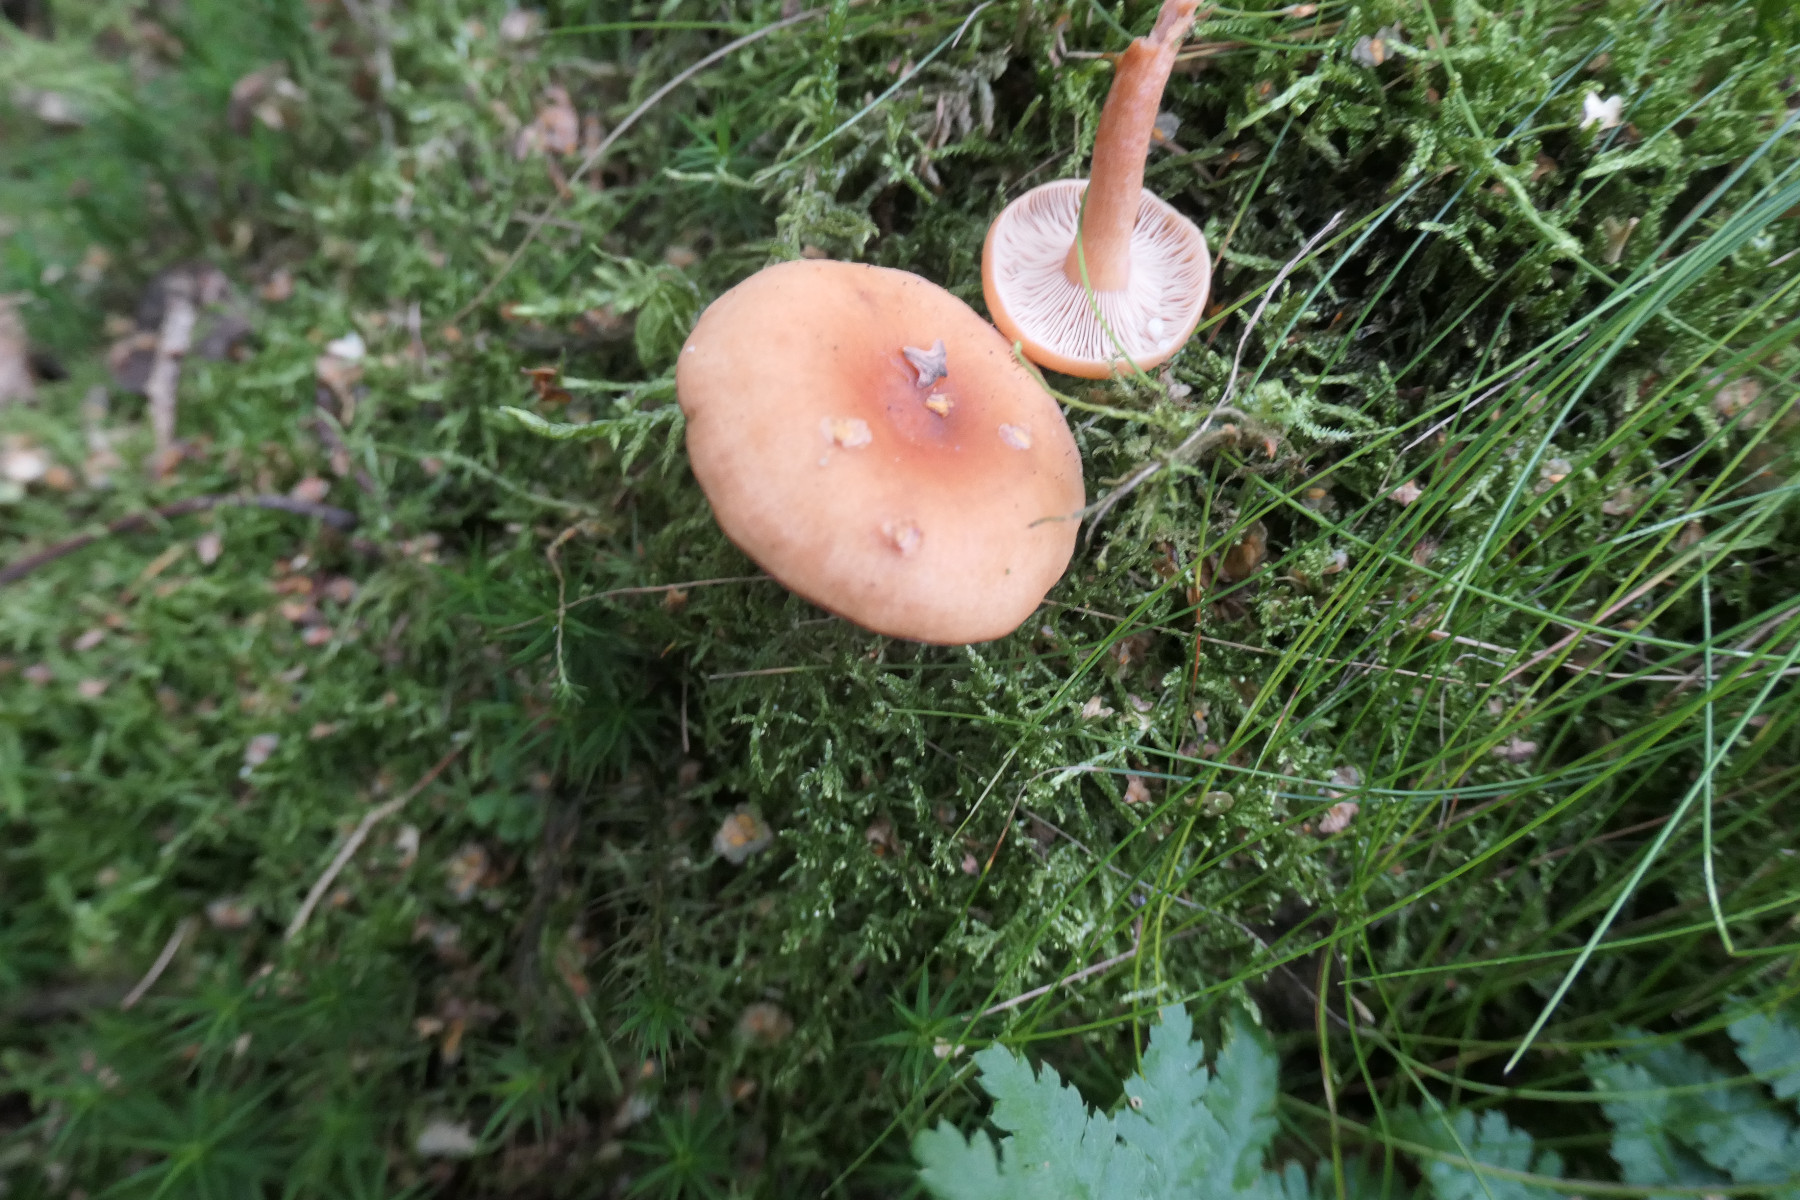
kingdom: Fungi
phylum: Basidiomycota
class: Agaricomycetes
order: Russulales
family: Russulaceae
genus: Lactarius
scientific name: Lactarius tabidus
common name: rynket mælkehat
